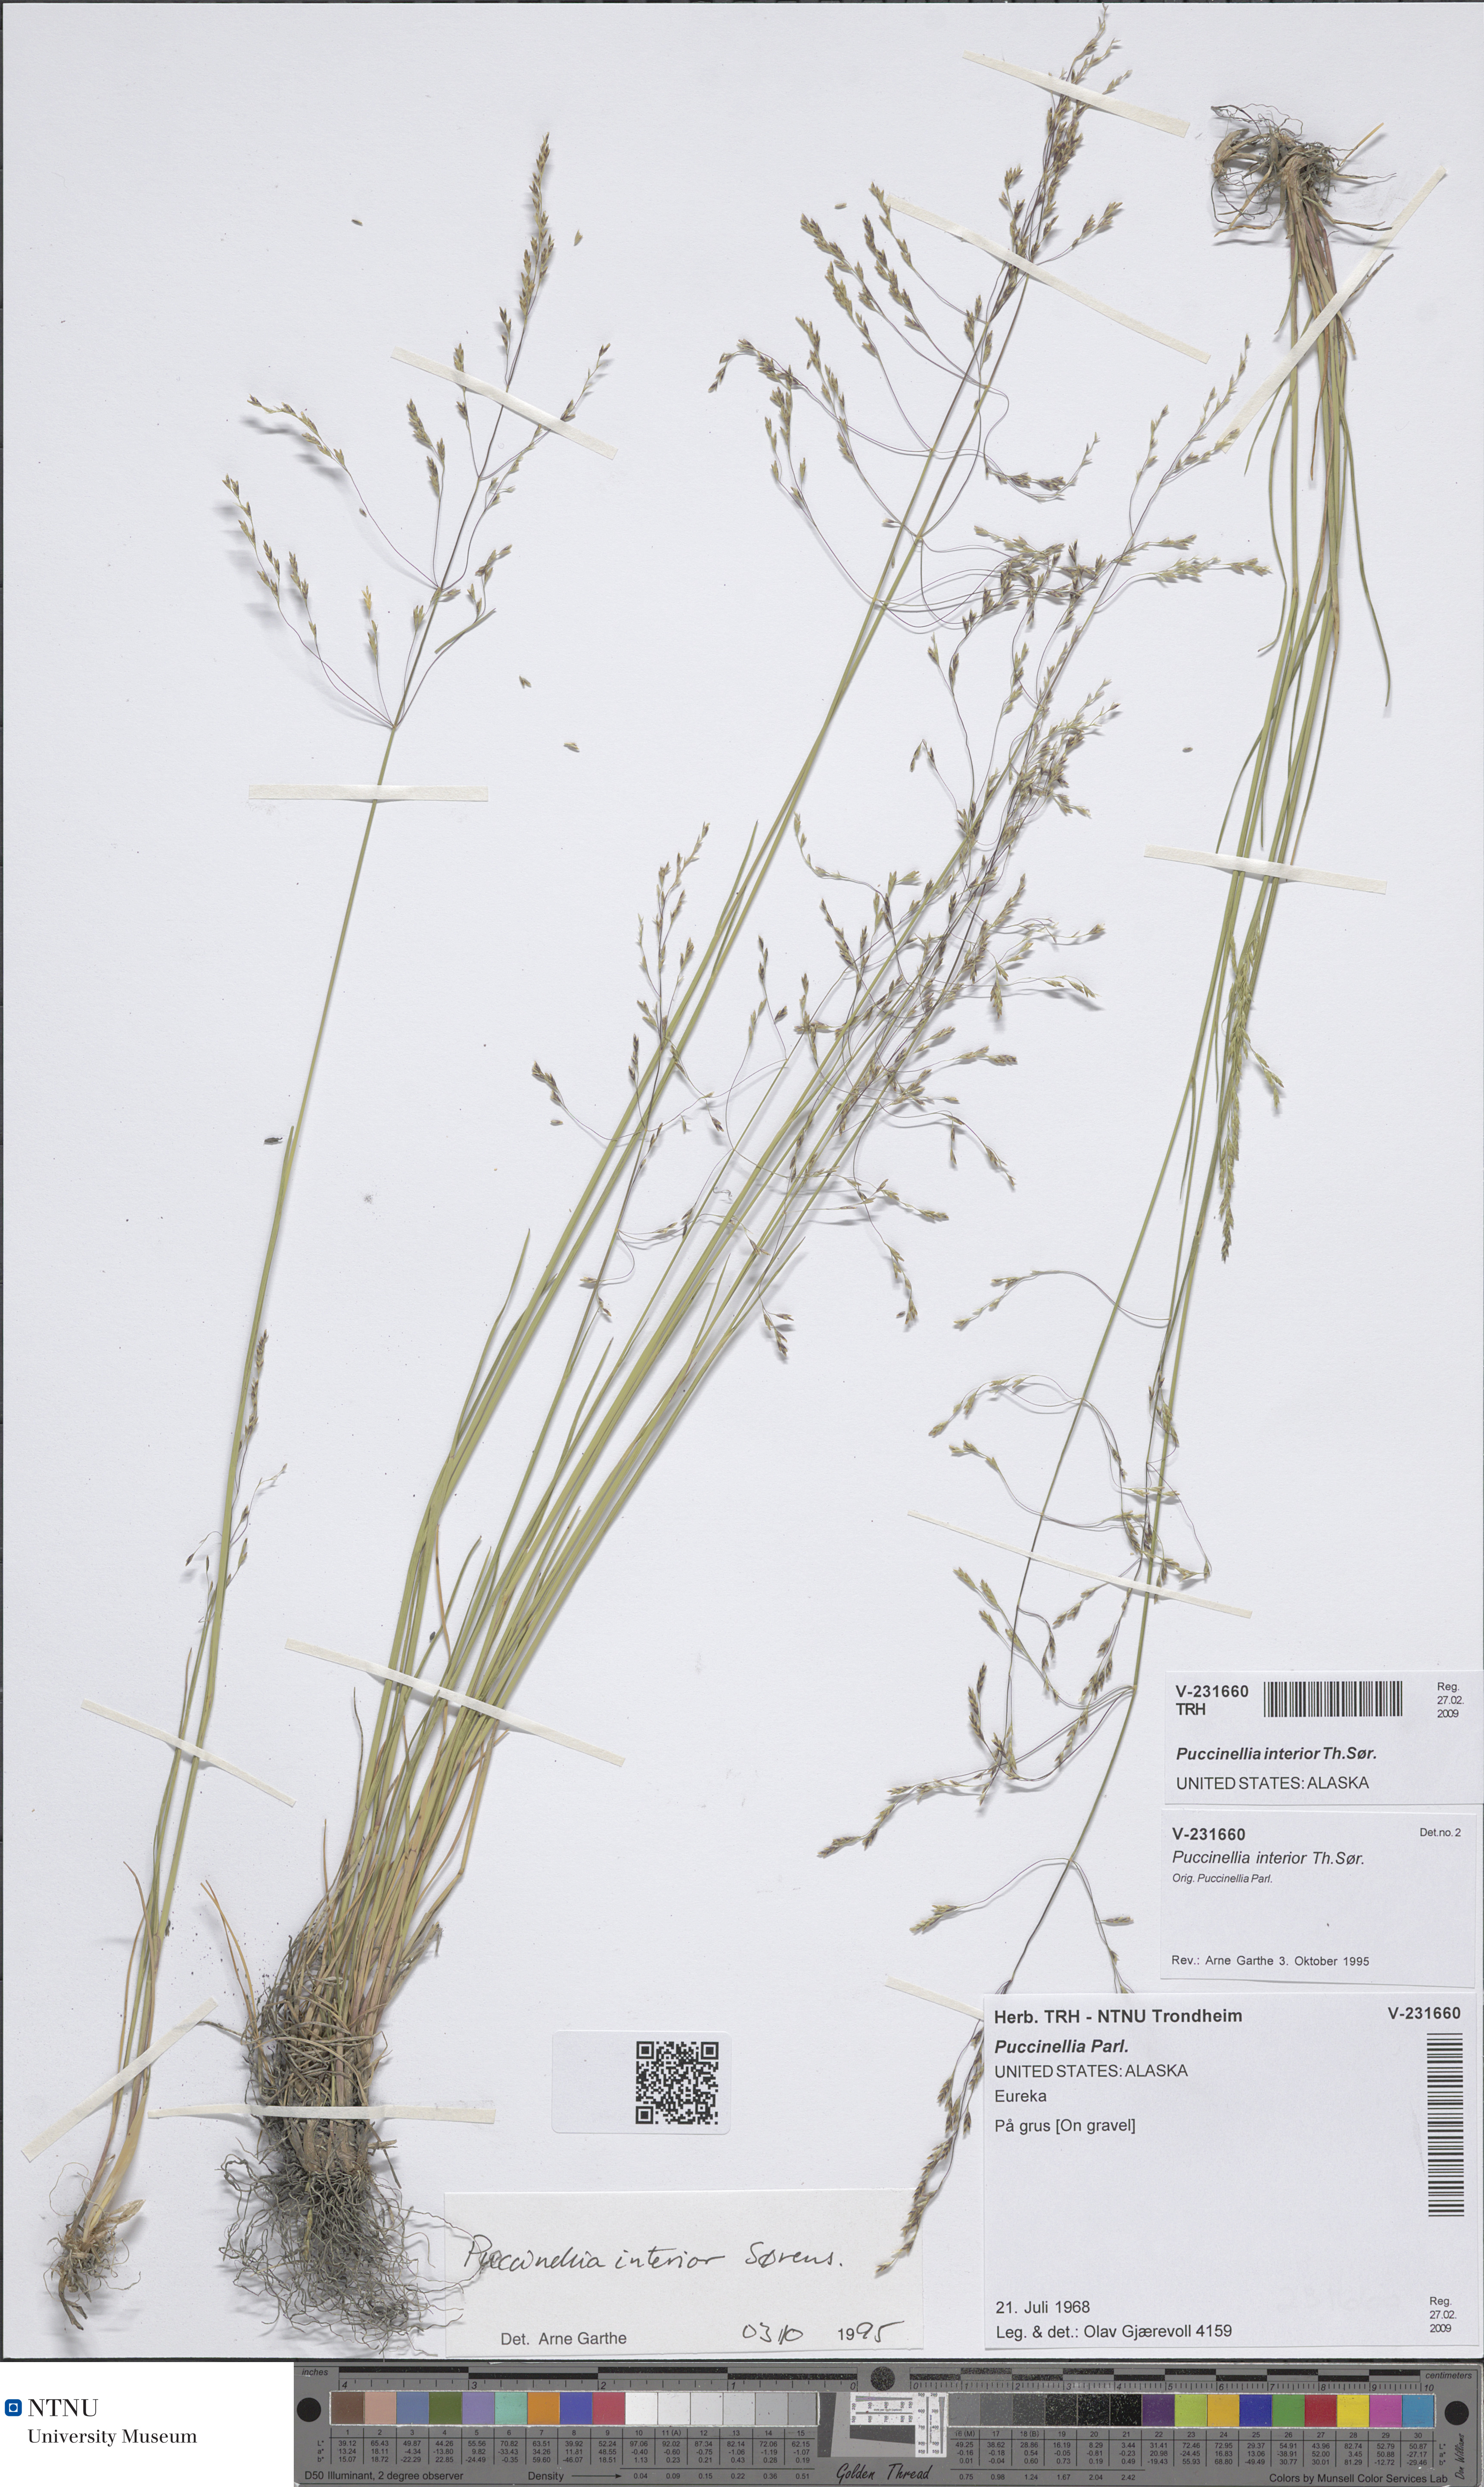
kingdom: Plantae
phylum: Tracheophyta
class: Liliopsida
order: Poales
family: Poaceae
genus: Puccinellia
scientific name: Puccinellia nuttalliana
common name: Nuttall's alkali grass
